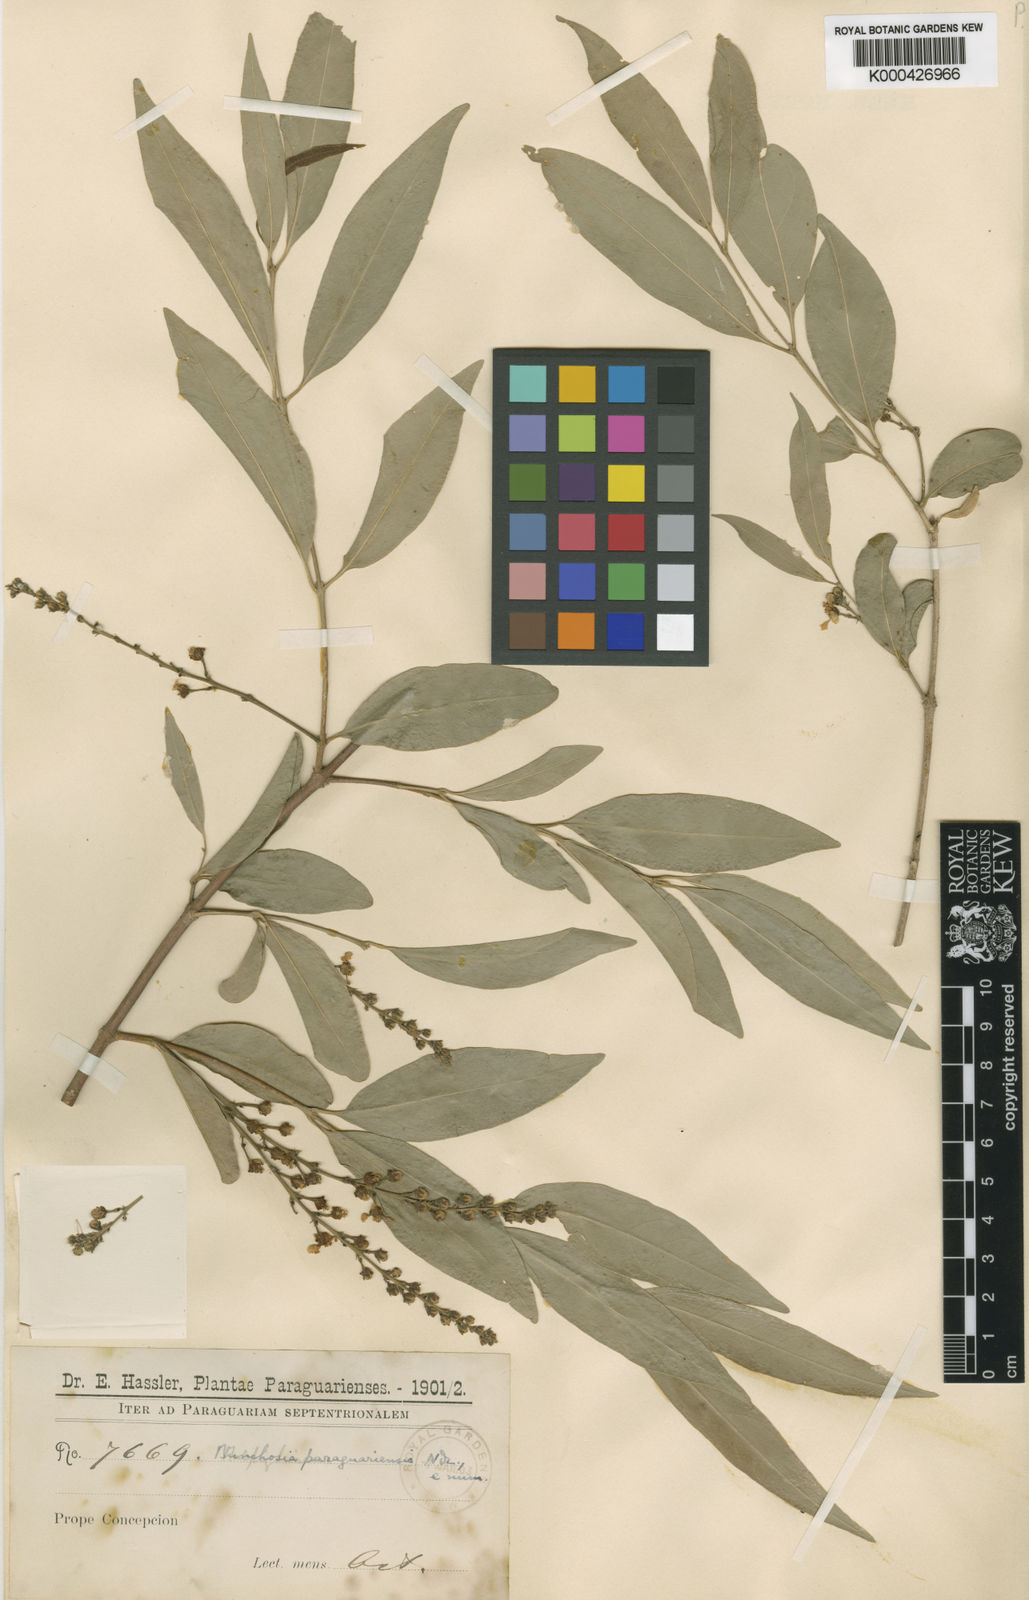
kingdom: Plantae
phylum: Tracheophyta
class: Magnoliopsida
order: Malpighiales
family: Malpighiaceae
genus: Bunchosia
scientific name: Bunchosia paraguariensis
